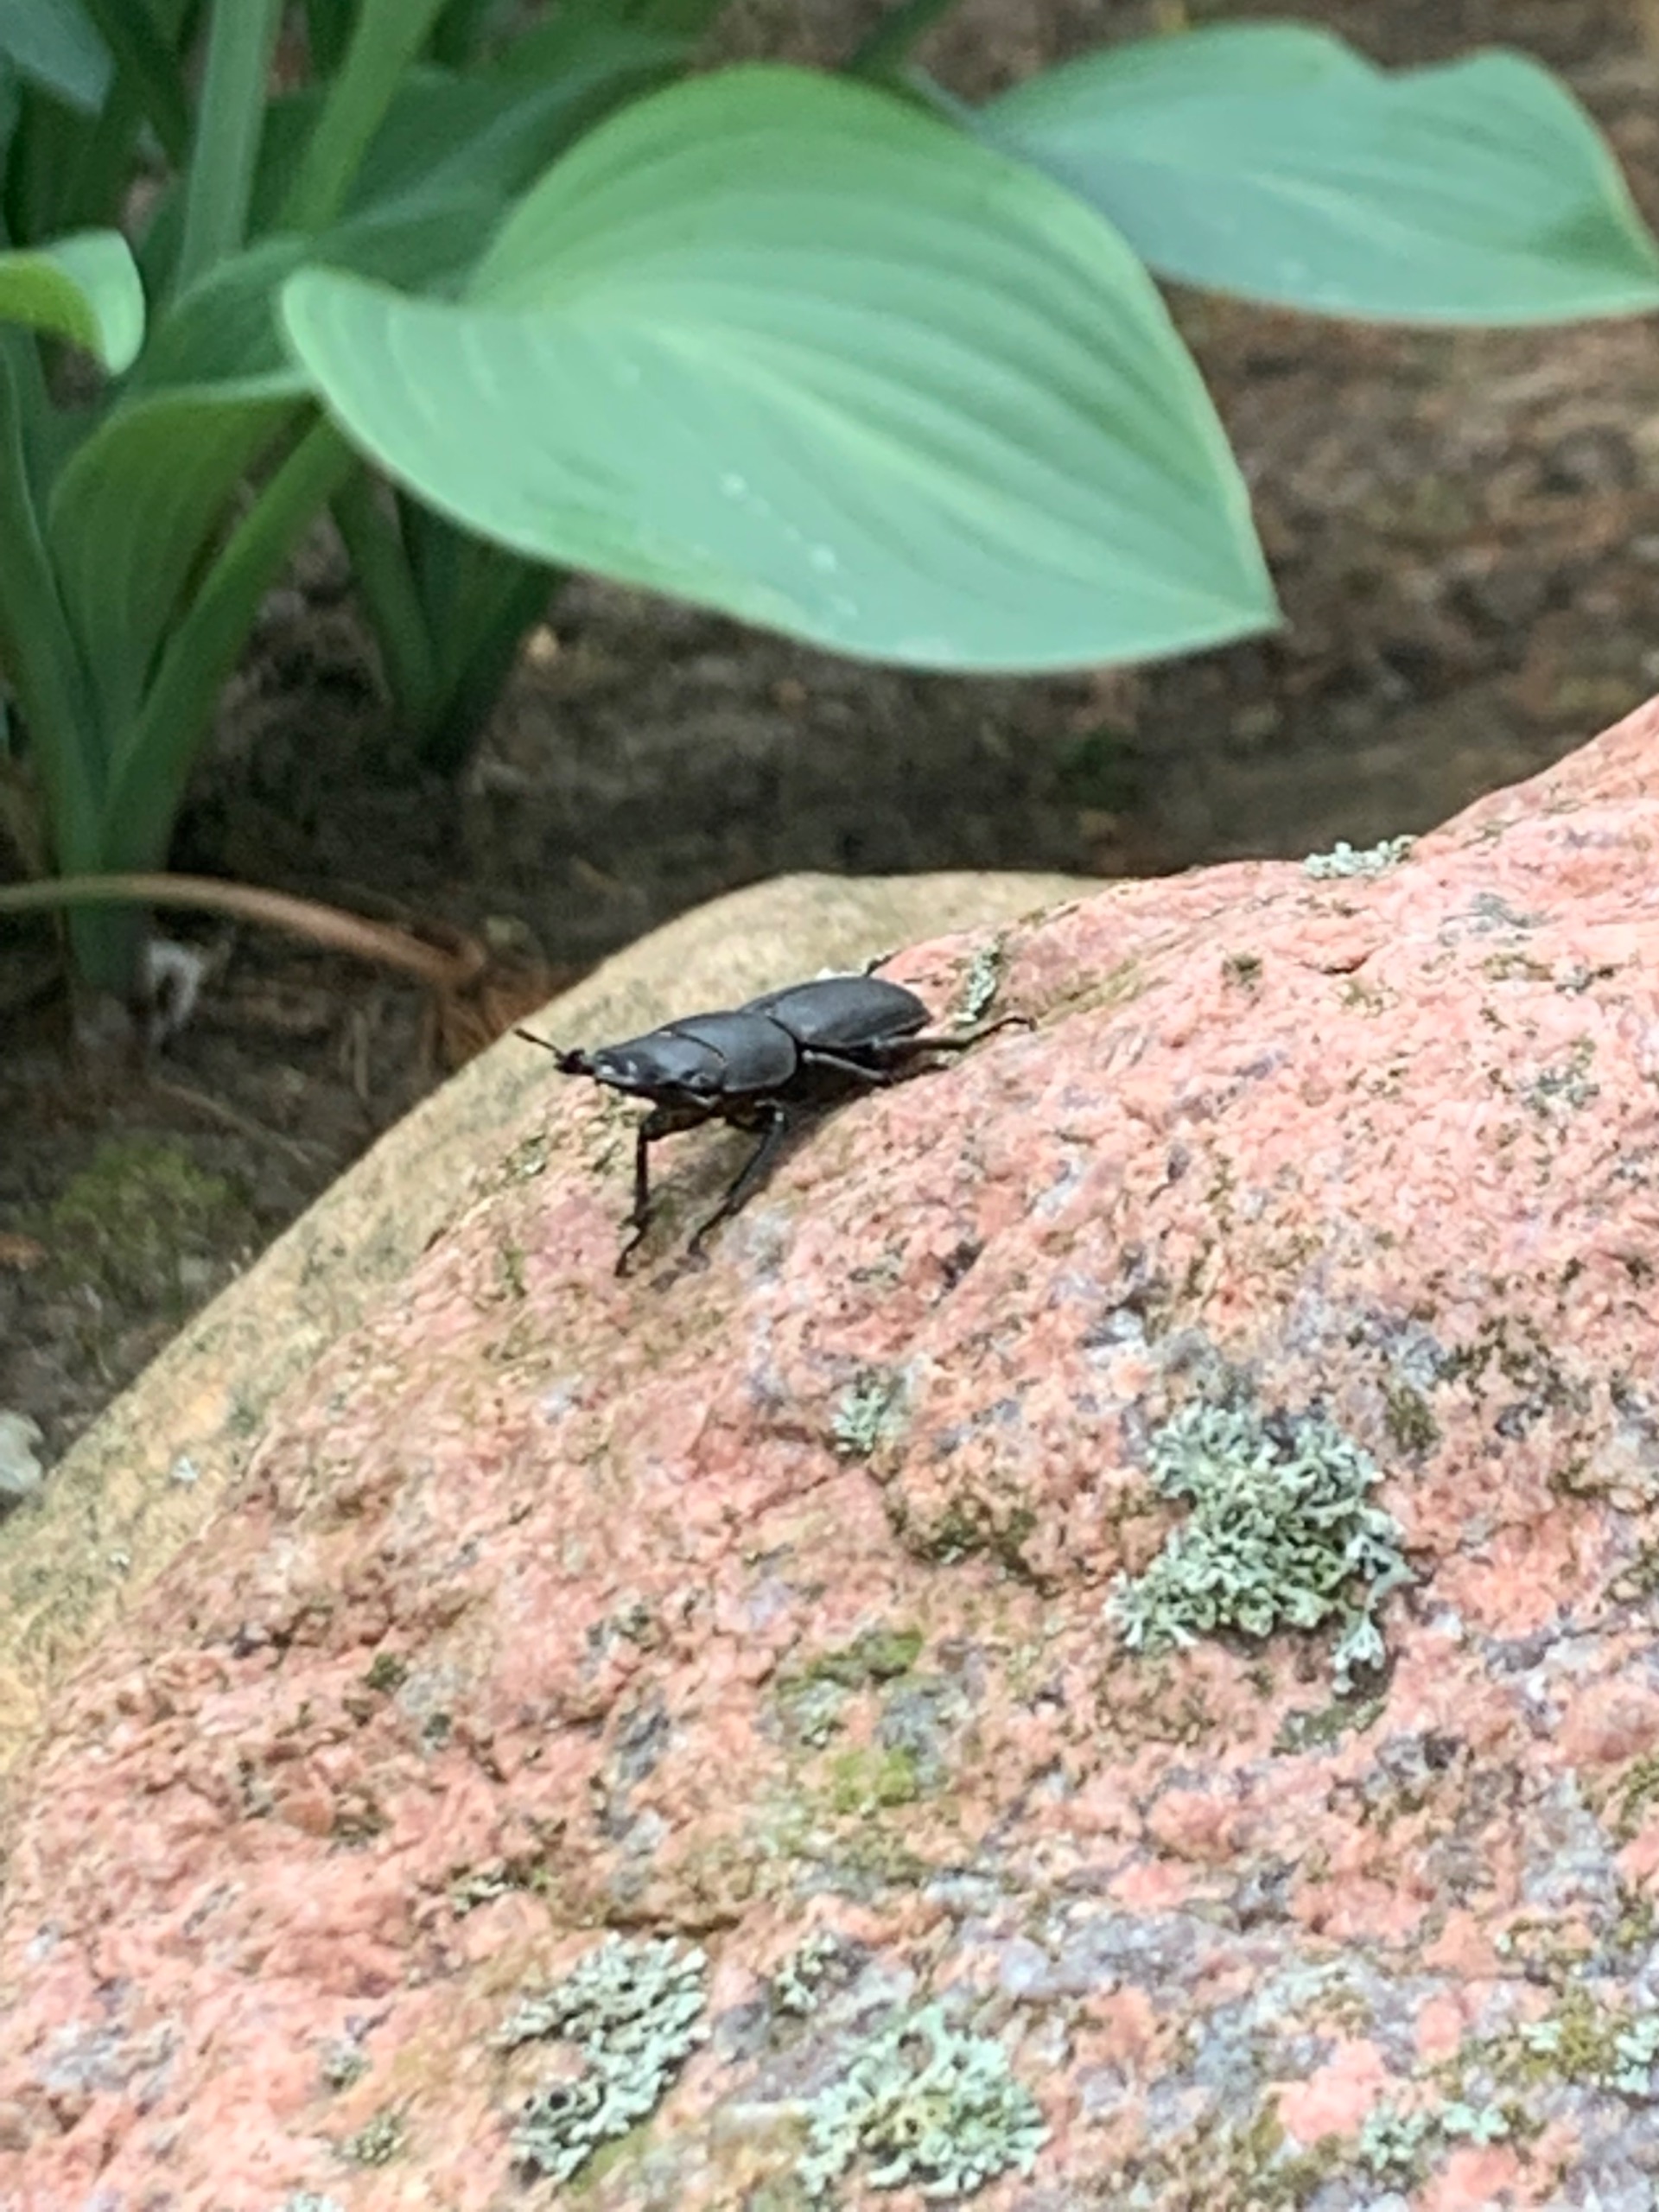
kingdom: Animalia
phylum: Arthropoda
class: Insecta
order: Coleoptera
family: Lucanidae
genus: Dorcus
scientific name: Dorcus parallelipipedus
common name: Bøghjort
